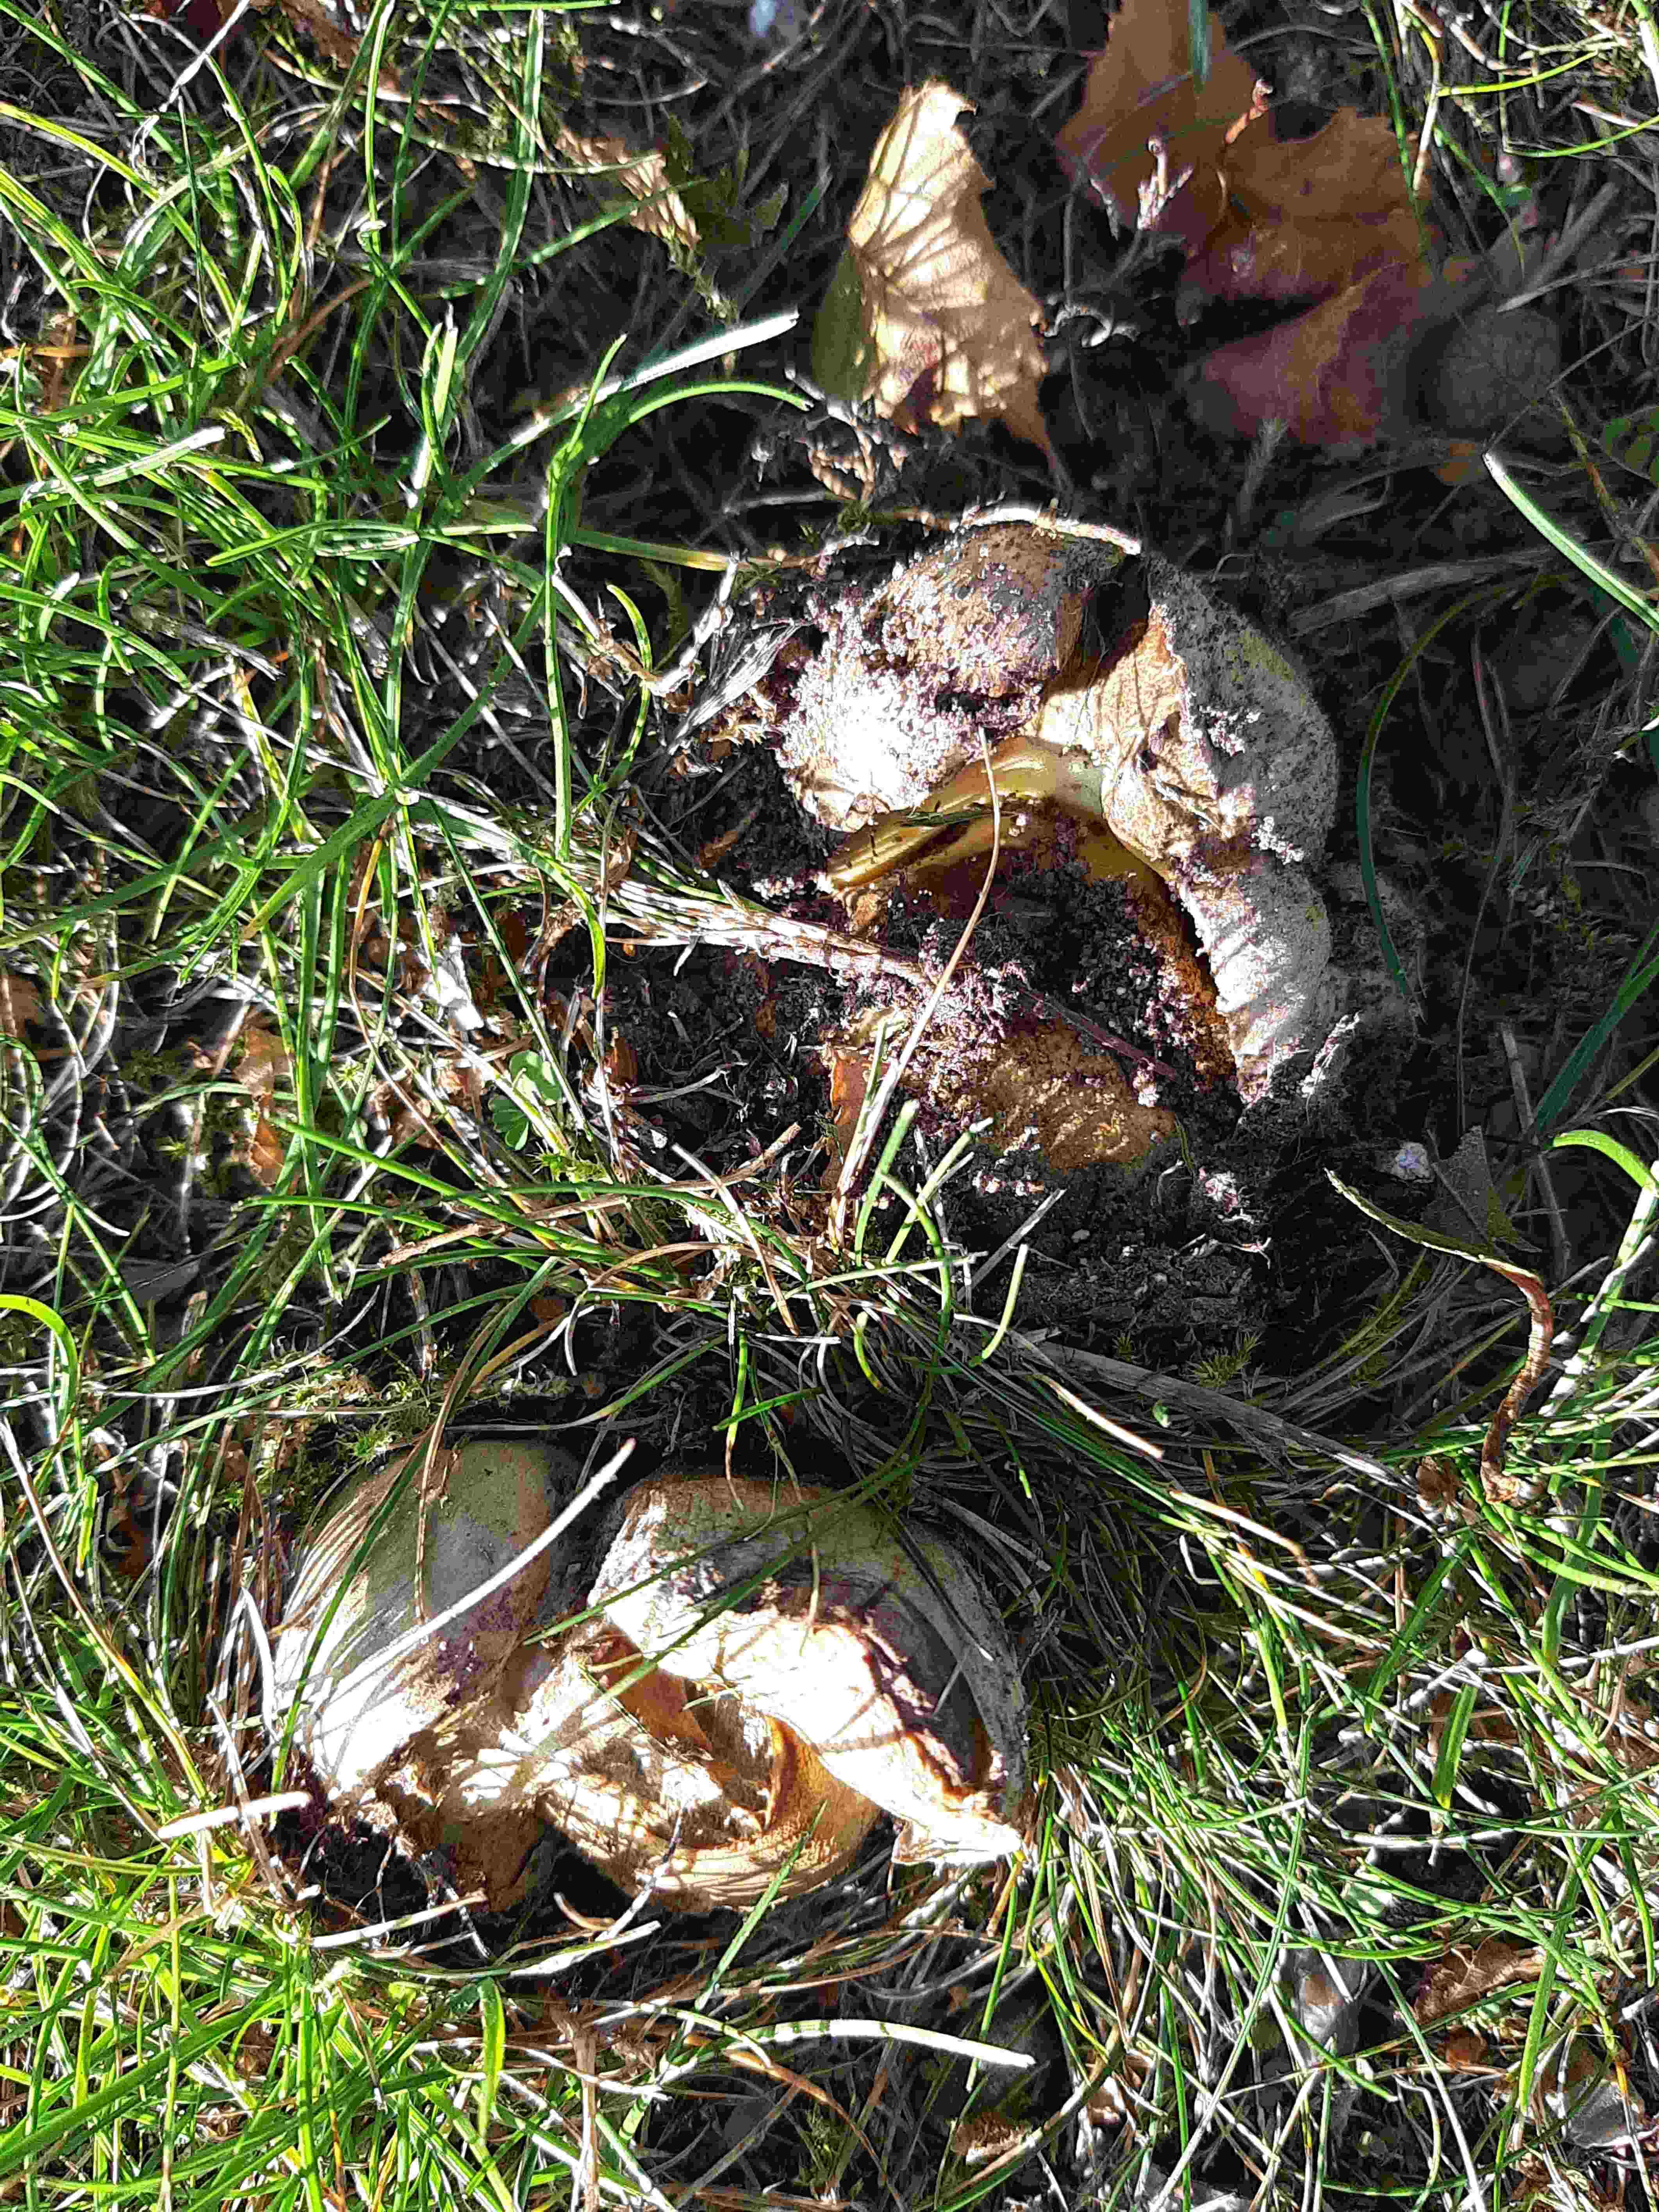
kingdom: Fungi
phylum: Basidiomycota
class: Agaricomycetes
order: Boletales
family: Boletaceae
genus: Caloboletus
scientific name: Caloboletus radicans
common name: rod-rørhat
